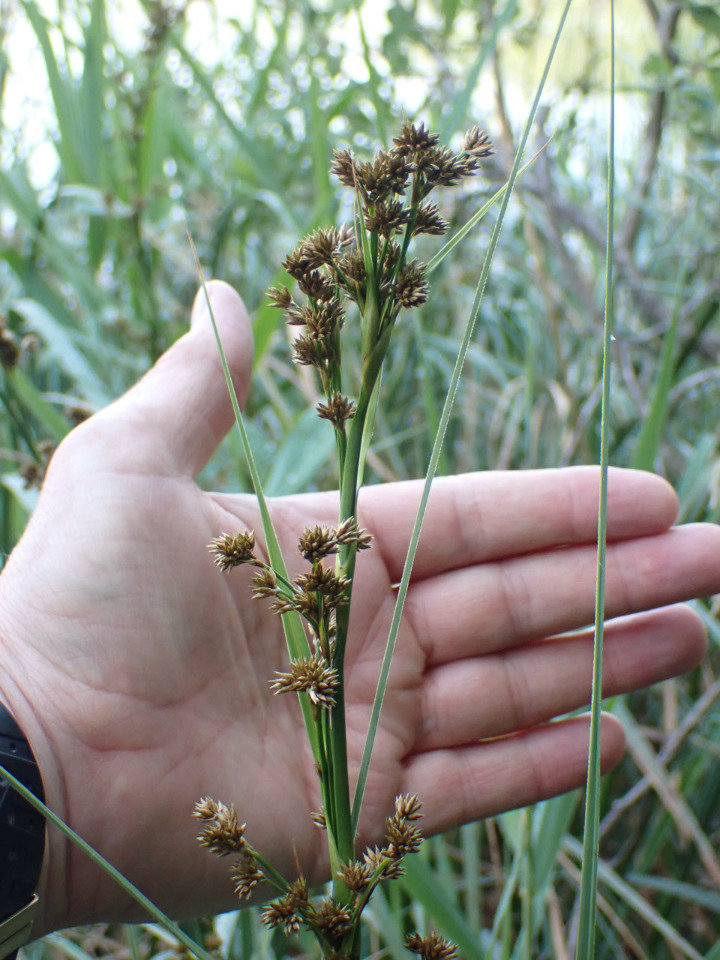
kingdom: Plantae
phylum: Tracheophyta
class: Liliopsida
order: Poales
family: Cyperaceae
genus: Cladium
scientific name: Cladium mariscus
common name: Hvas avneknippe
